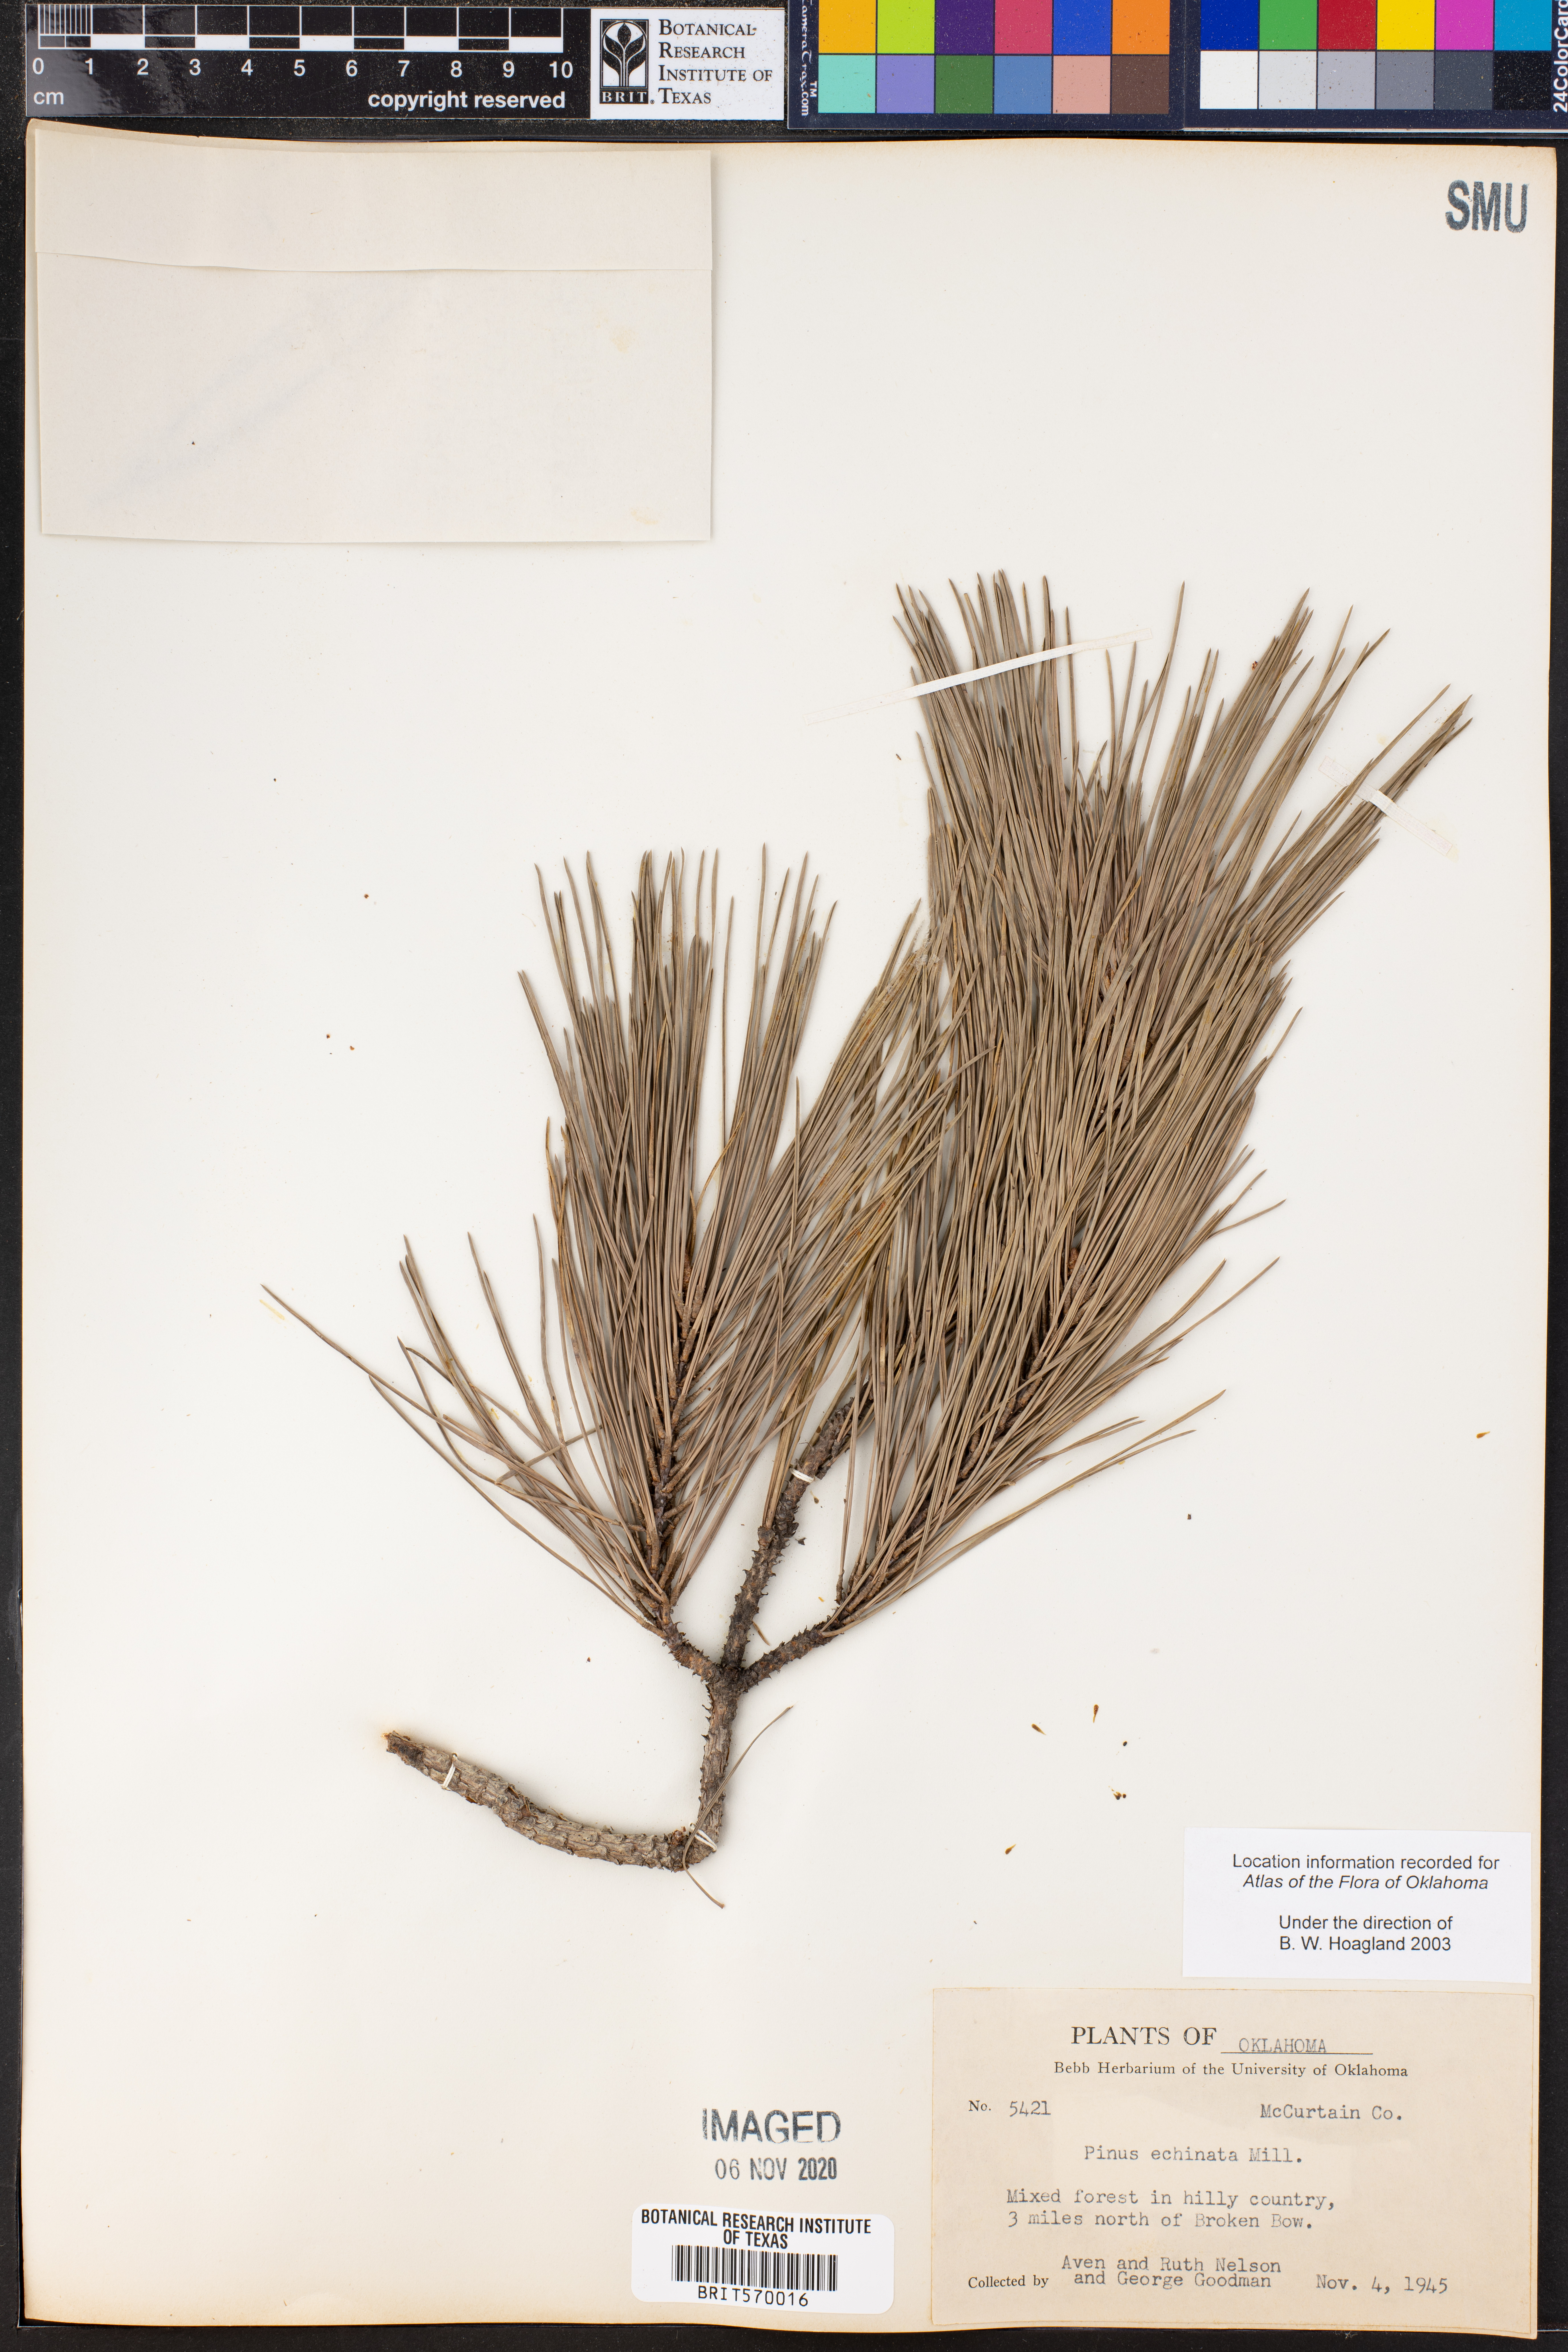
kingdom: Plantae
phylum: Tracheophyta
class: Pinopsida
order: Pinales
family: Pinaceae
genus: Pinus
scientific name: Pinus echinata
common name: Shortleaf pine
